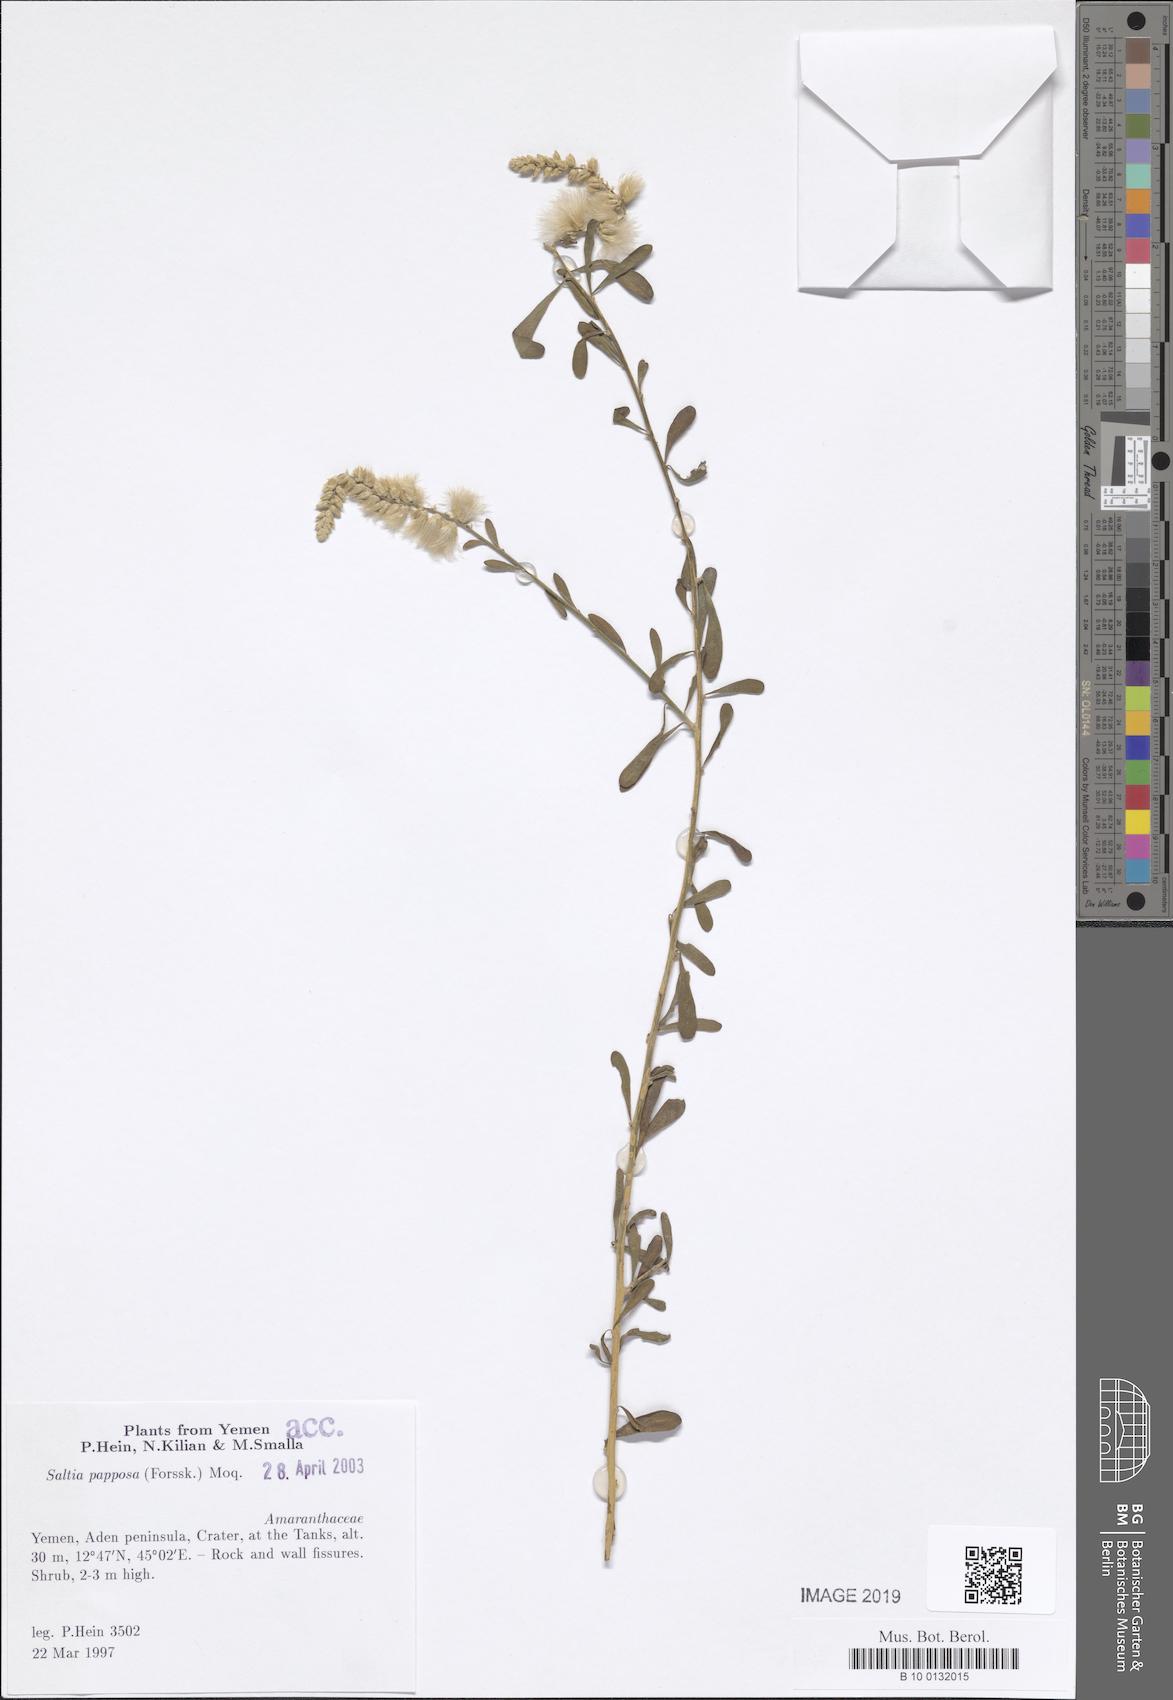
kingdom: Plantae
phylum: Tracheophyta
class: Magnoliopsida
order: Caryophyllales
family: Amaranthaceae
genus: Saltia
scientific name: Saltia papposa
